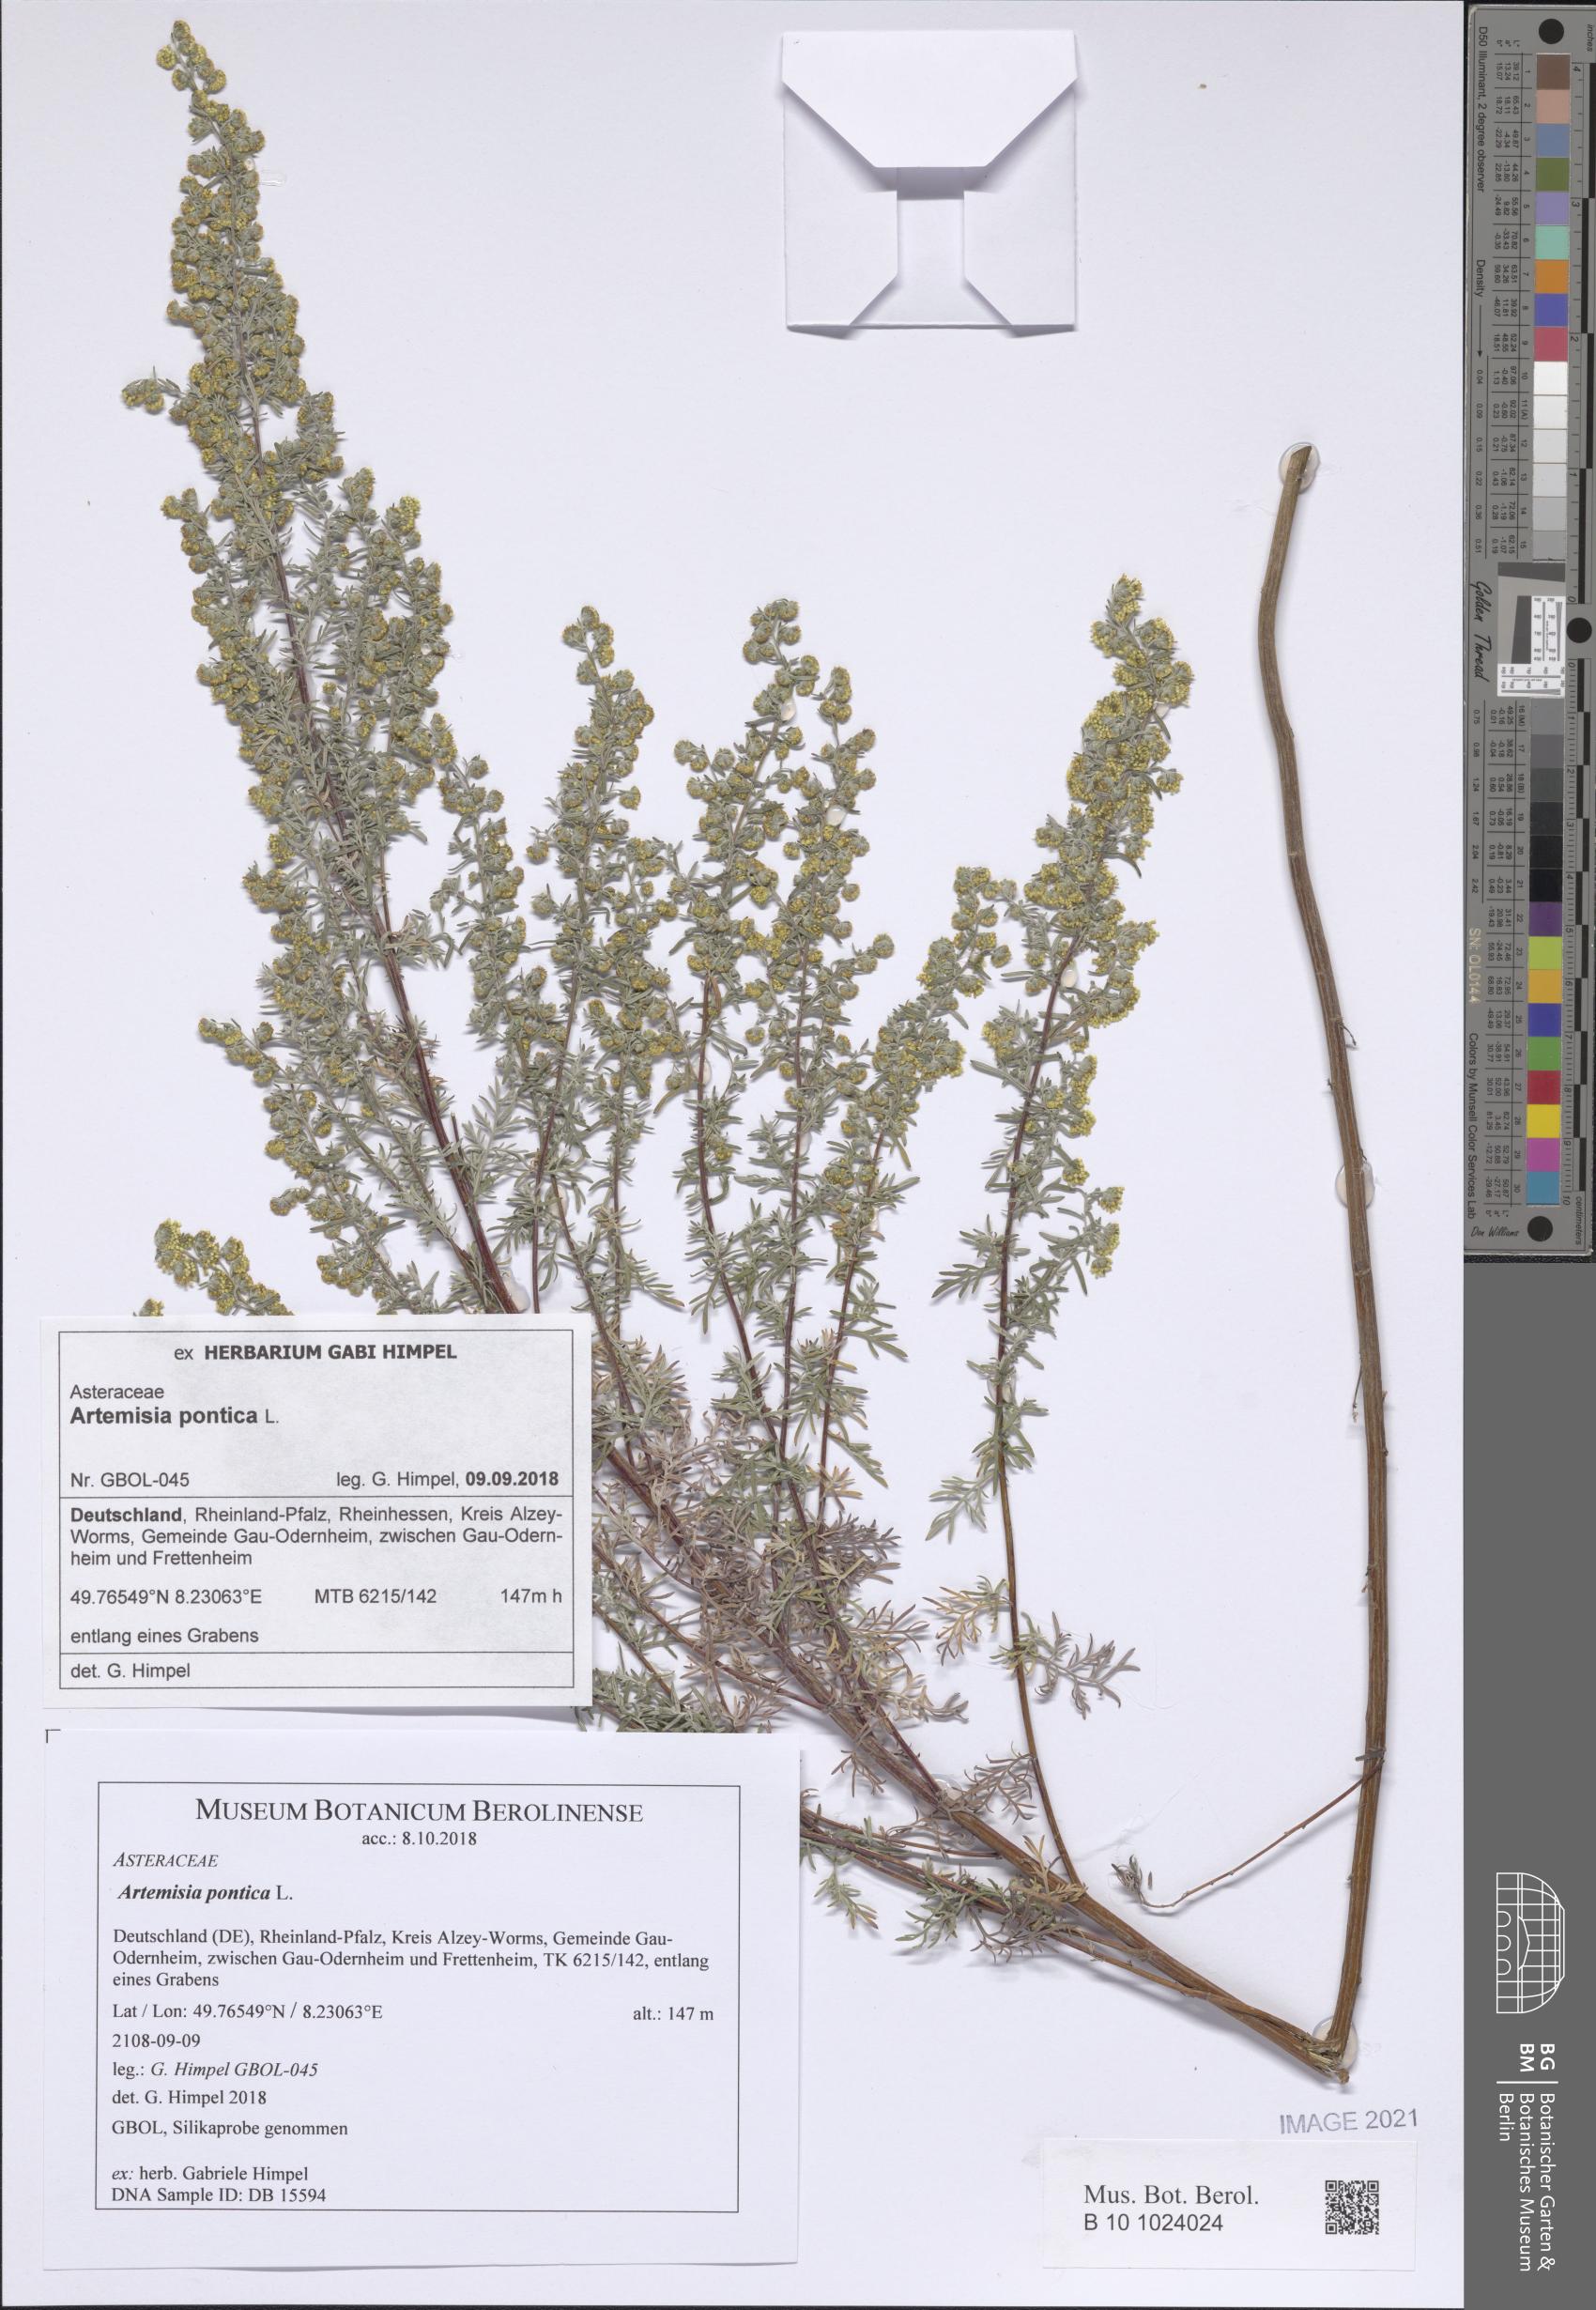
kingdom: Plantae
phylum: Tracheophyta
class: Magnoliopsida
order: Asterales
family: Asteraceae
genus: Artemisia
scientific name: Artemisia pontica
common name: Roman wormwood
